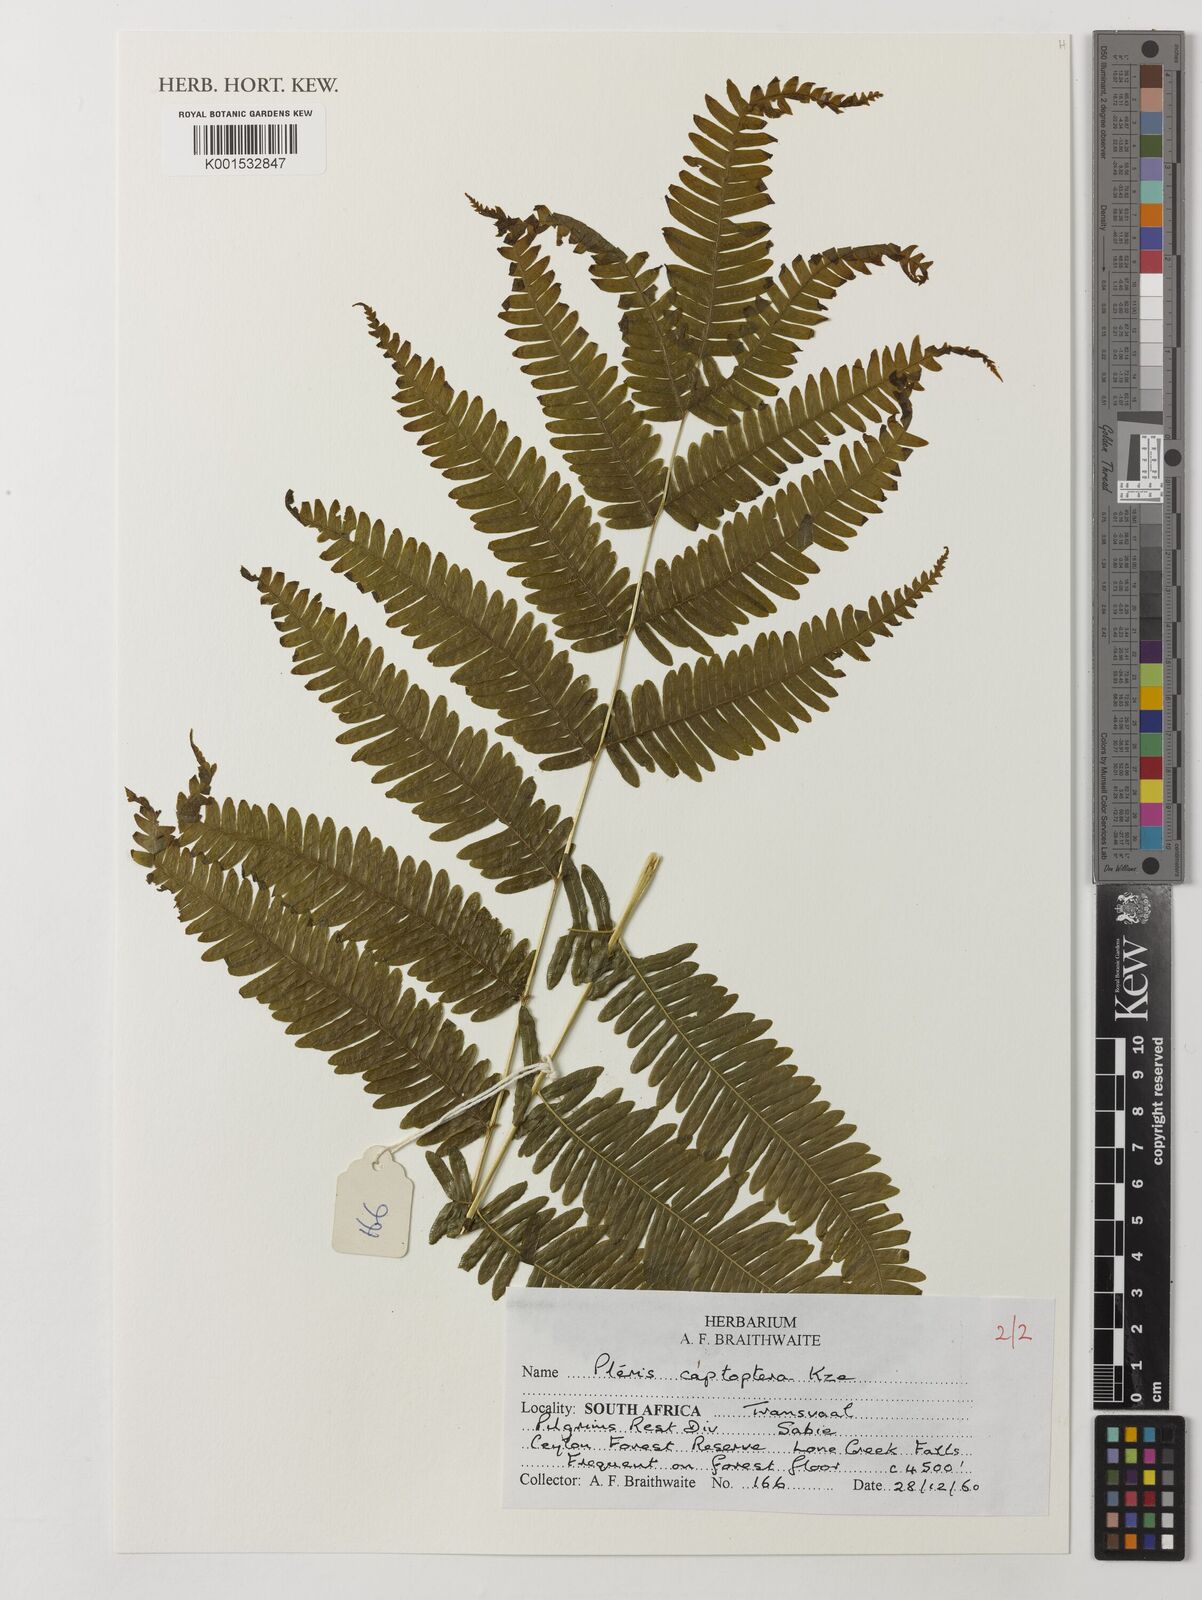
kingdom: Plantae
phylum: Tracheophyta
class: Polypodiopsida
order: Polypodiales
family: Pteridaceae
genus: Pteris
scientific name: Pteris catoptera
